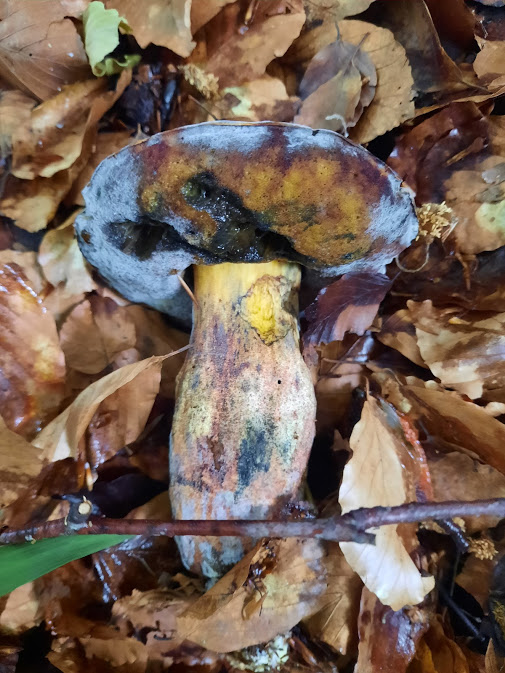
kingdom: Fungi
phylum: Basidiomycota
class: Agaricomycetes
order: Boletales
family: Boletaceae
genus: Neoboletus
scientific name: Neoboletus erythropus
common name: punktstokket indigorørhat
